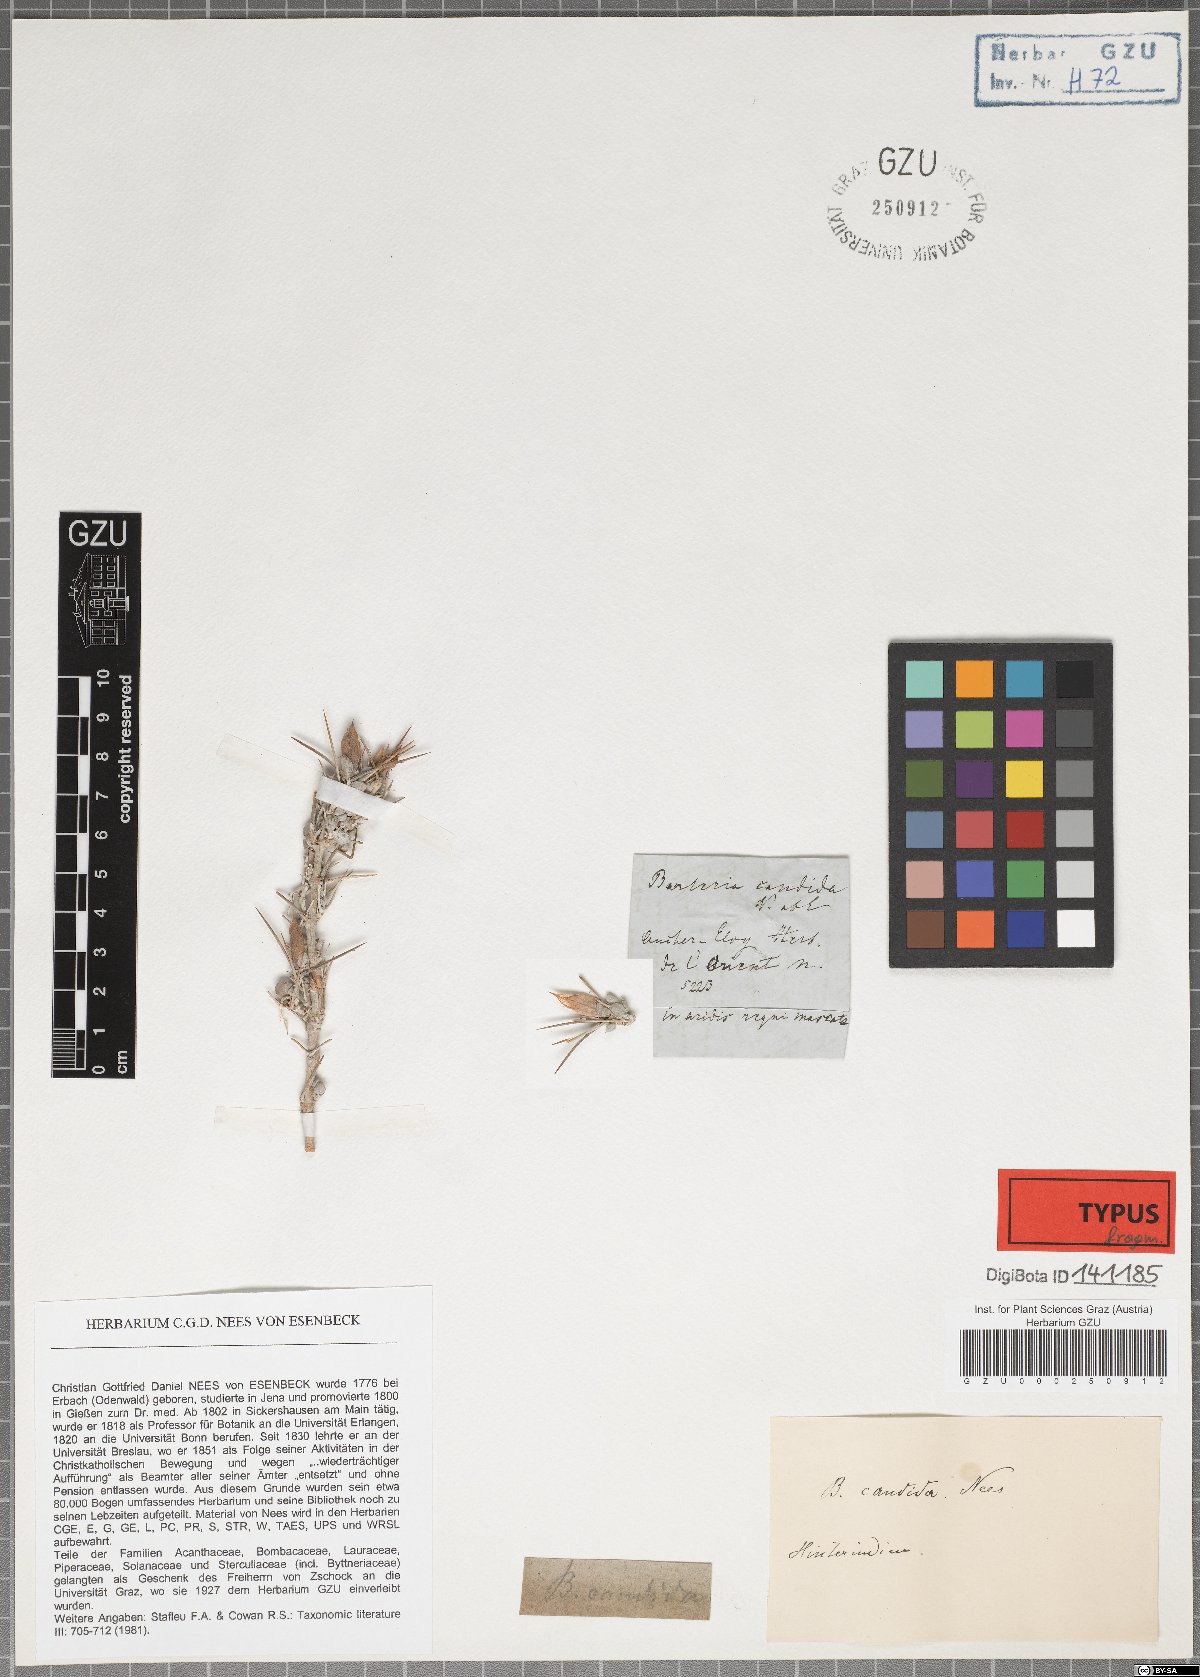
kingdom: Plantae
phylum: Tracheophyta
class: Magnoliopsida
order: Lamiales
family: Acanthaceae
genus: Barleria
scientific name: Barleria candida
